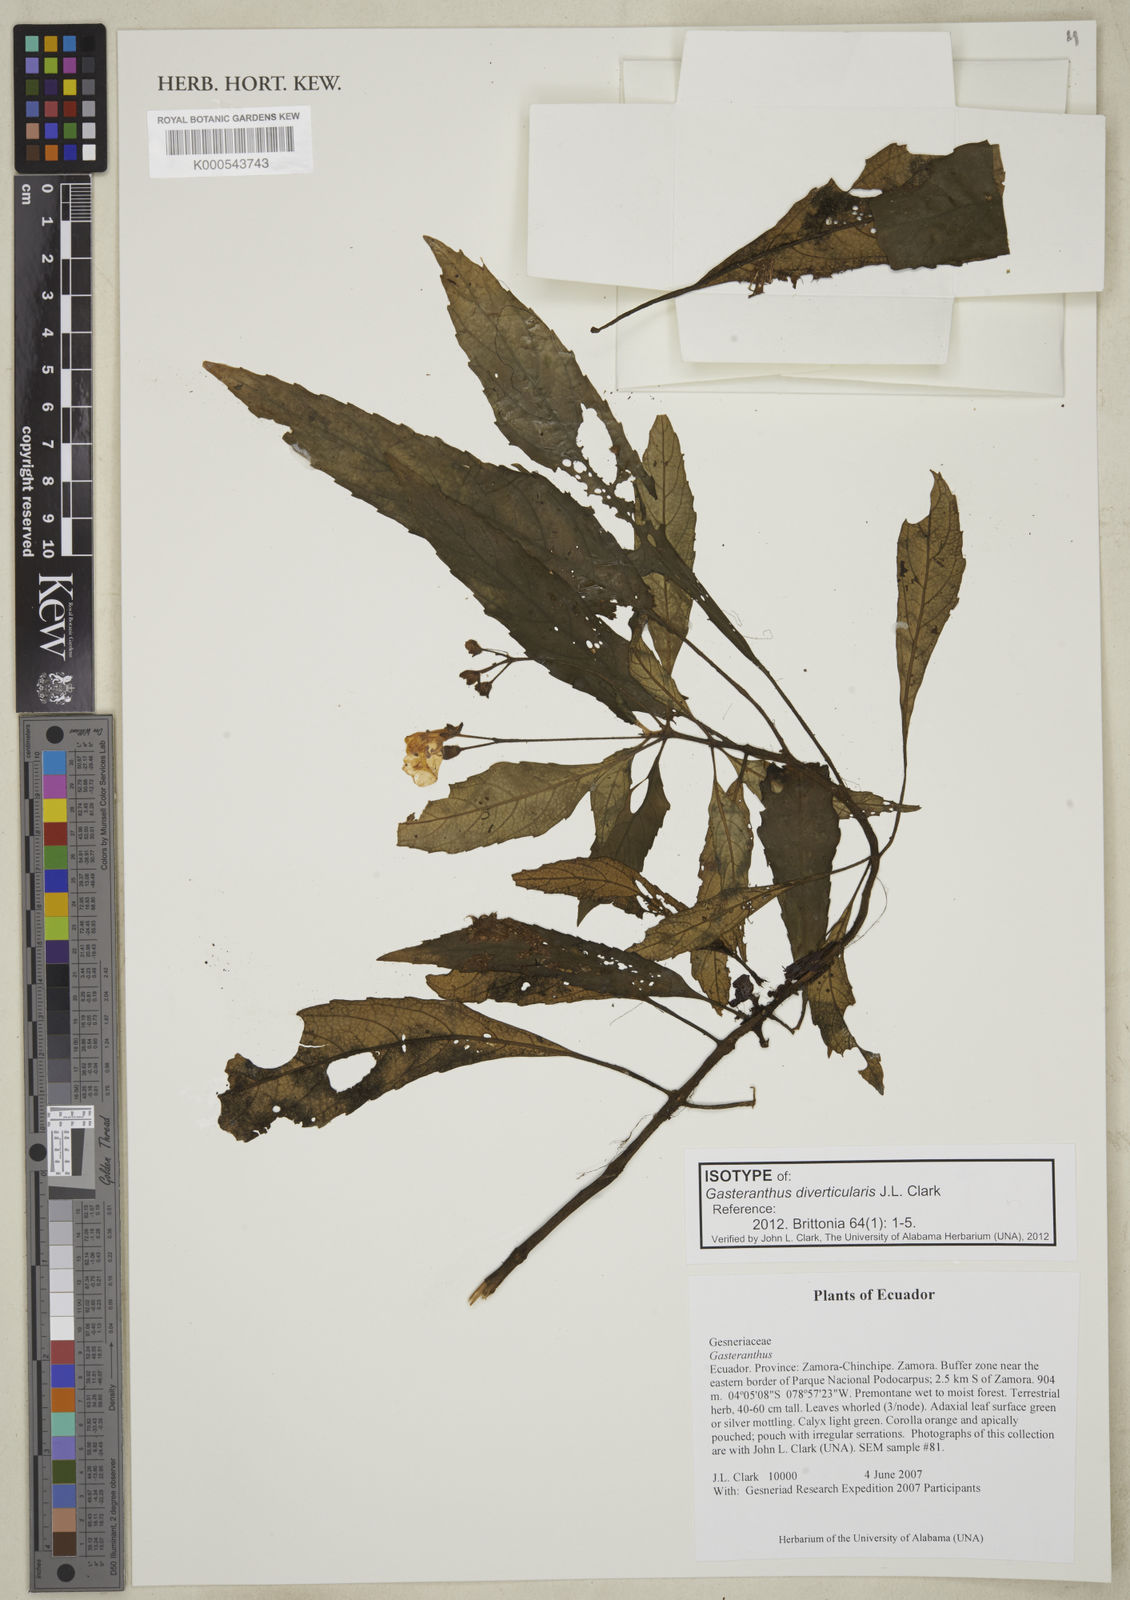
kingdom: Plantae
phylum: Tracheophyta
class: Magnoliopsida
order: Lamiales
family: Gesneriaceae
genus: Gasteranthus
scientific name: Gasteranthus diverticularis
